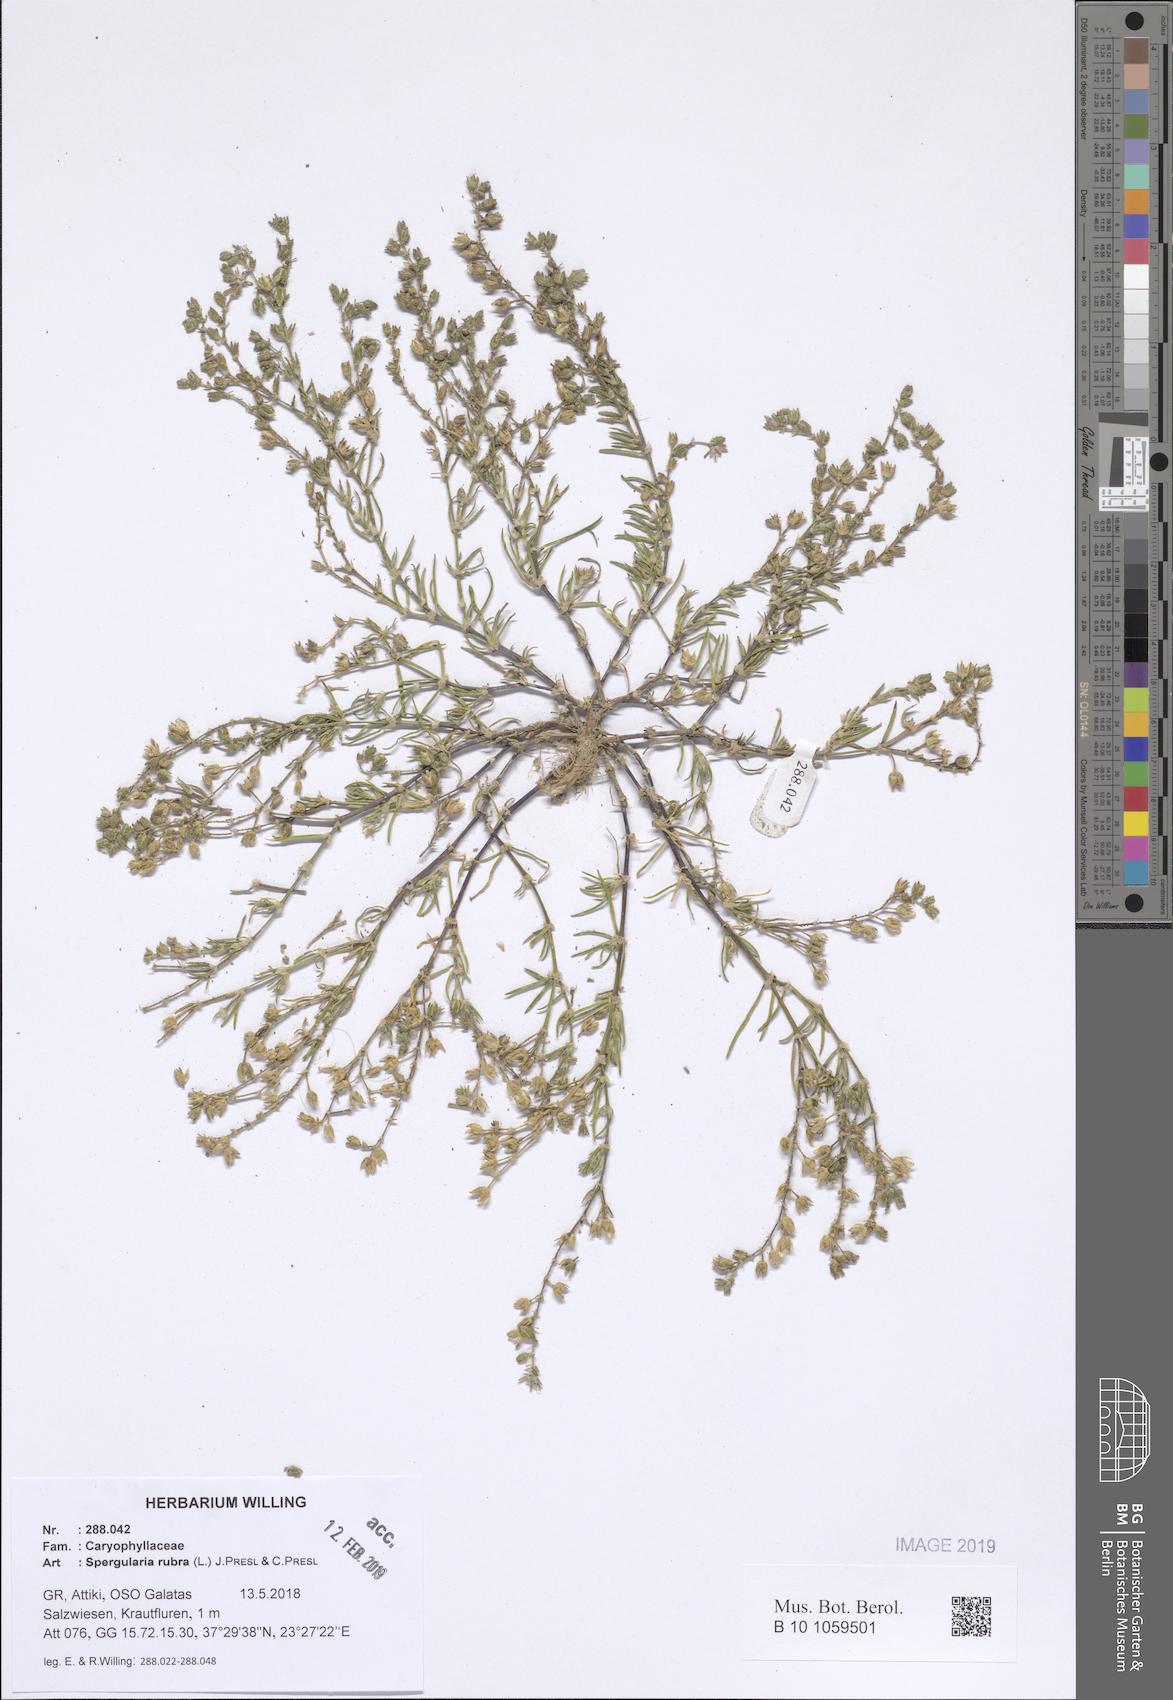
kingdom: Plantae
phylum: Tracheophyta
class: Magnoliopsida
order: Caryophyllales
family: Caryophyllaceae
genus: Spergularia
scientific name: Spergularia rubra
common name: Red sand-spurrey
